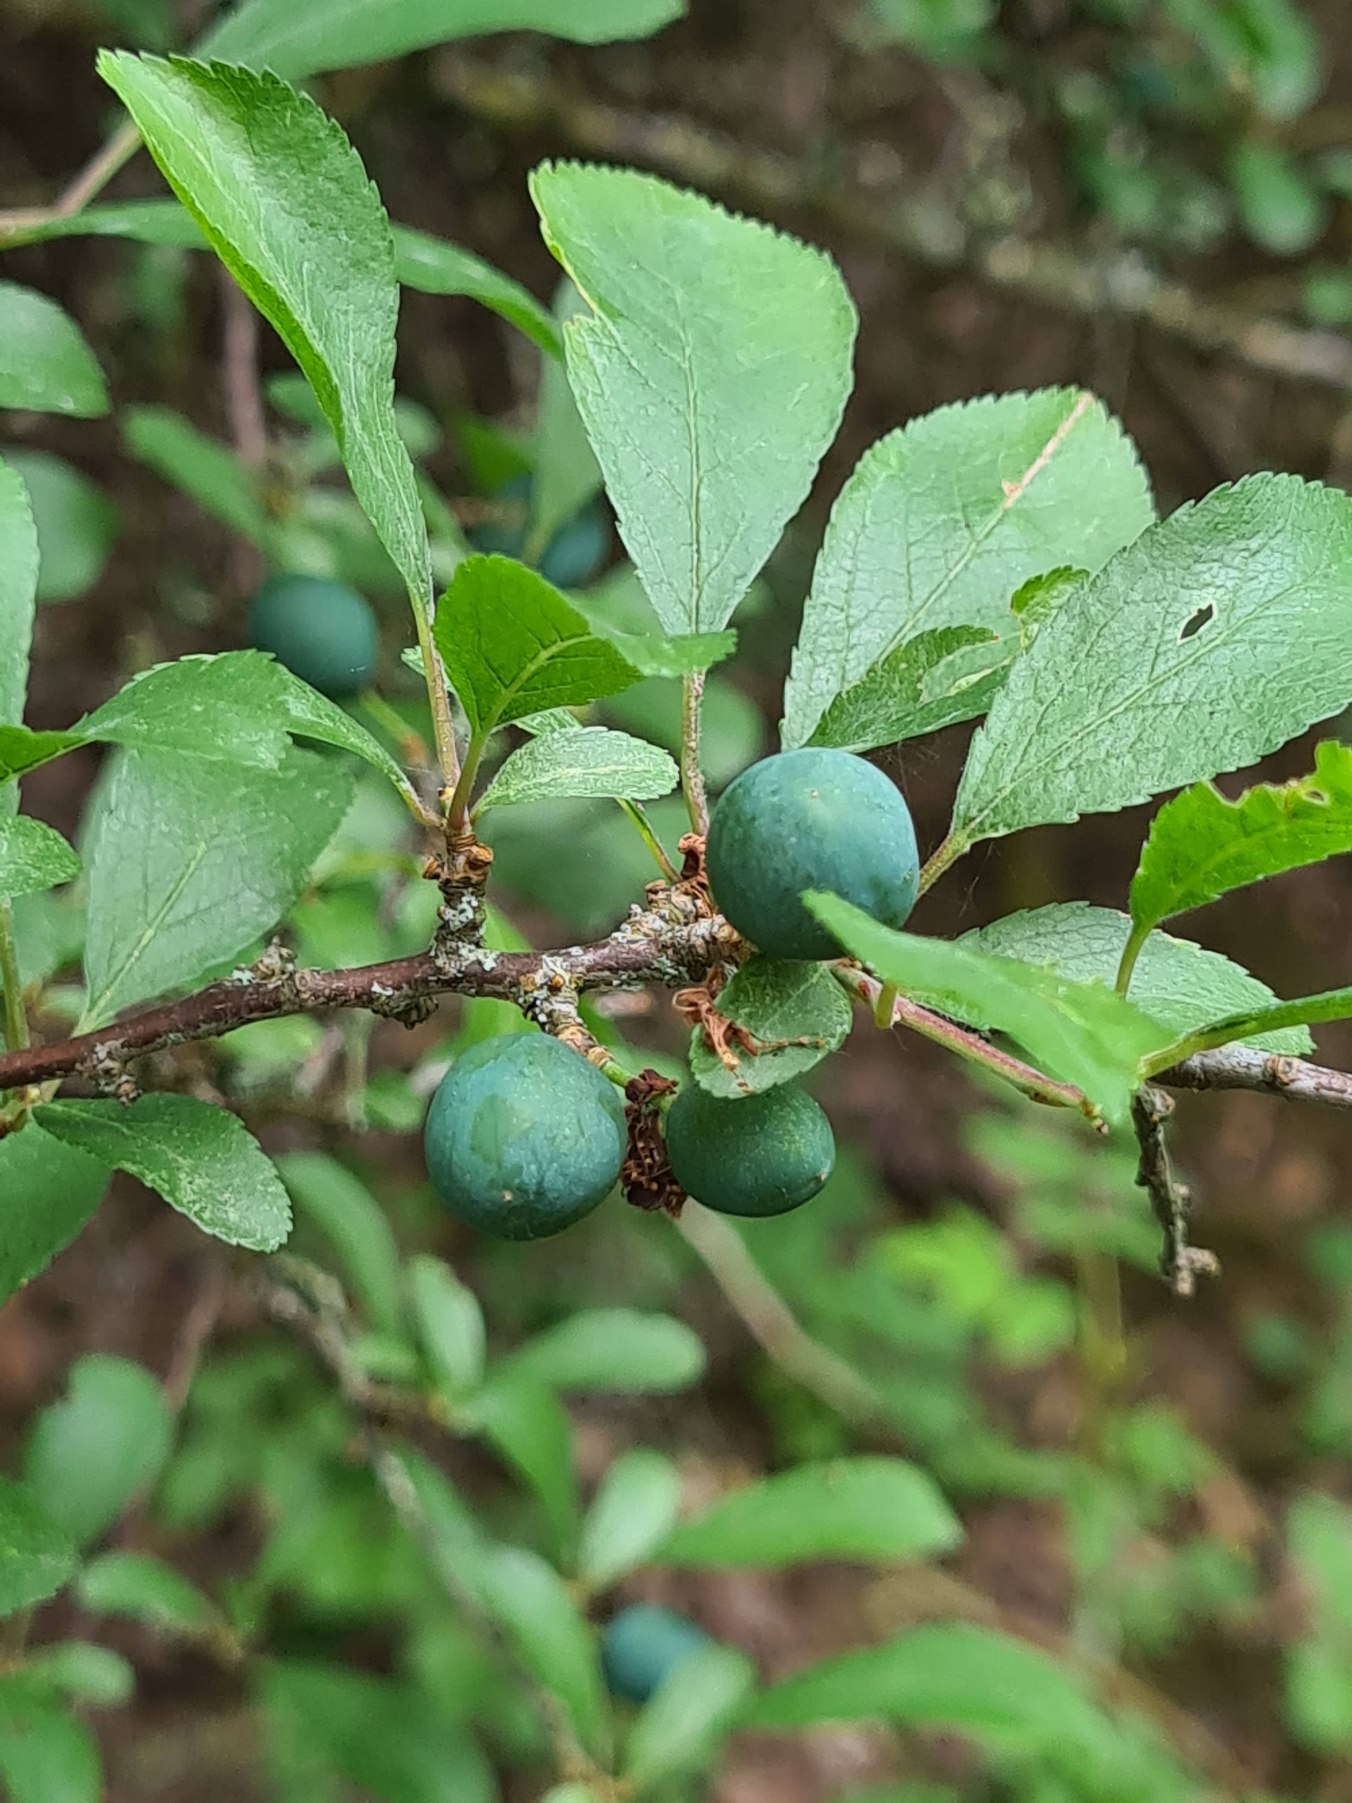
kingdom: Plantae
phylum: Tracheophyta
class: Magnoliopsida
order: Rosales
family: Rosaceae
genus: Prunus
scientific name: Prunus spinosa
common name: Slåen
